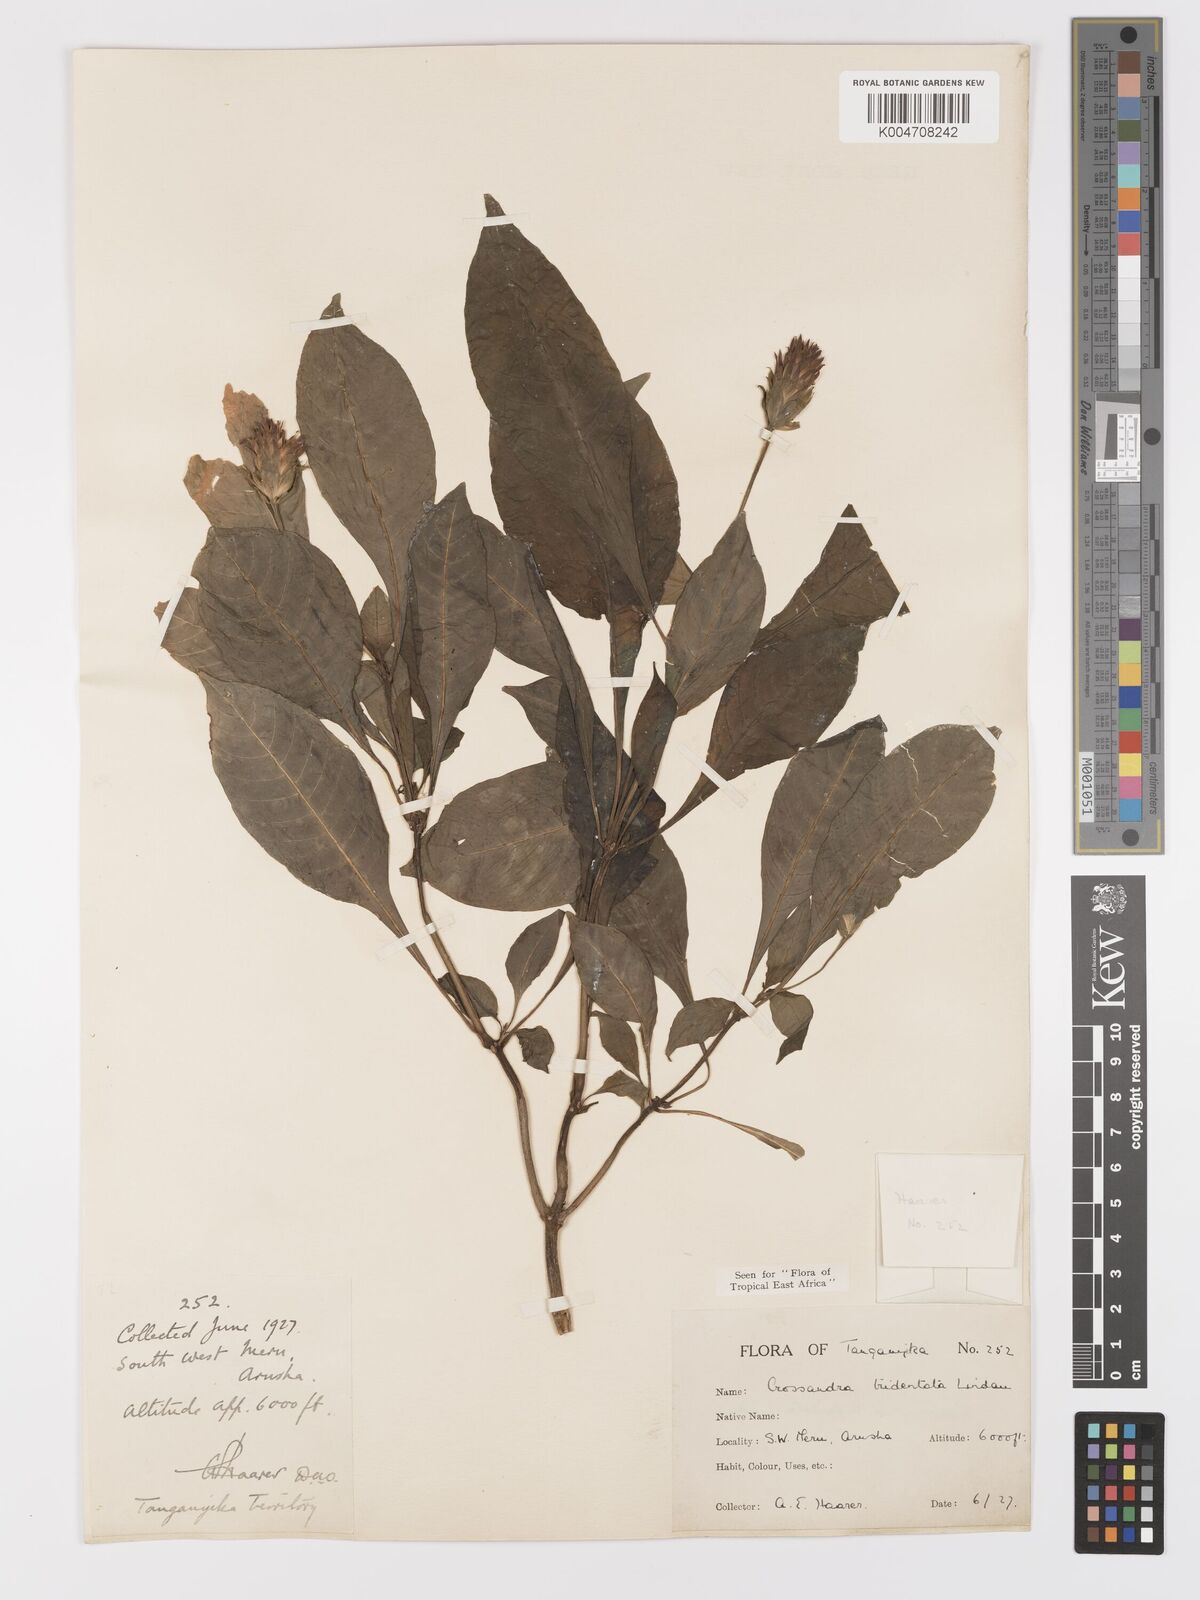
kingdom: Plantae
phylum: Tracheophyta
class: Magnoliopsida
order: Lamiales
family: Acanthaceae
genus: Crossandra
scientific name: Crossandra tridentata
